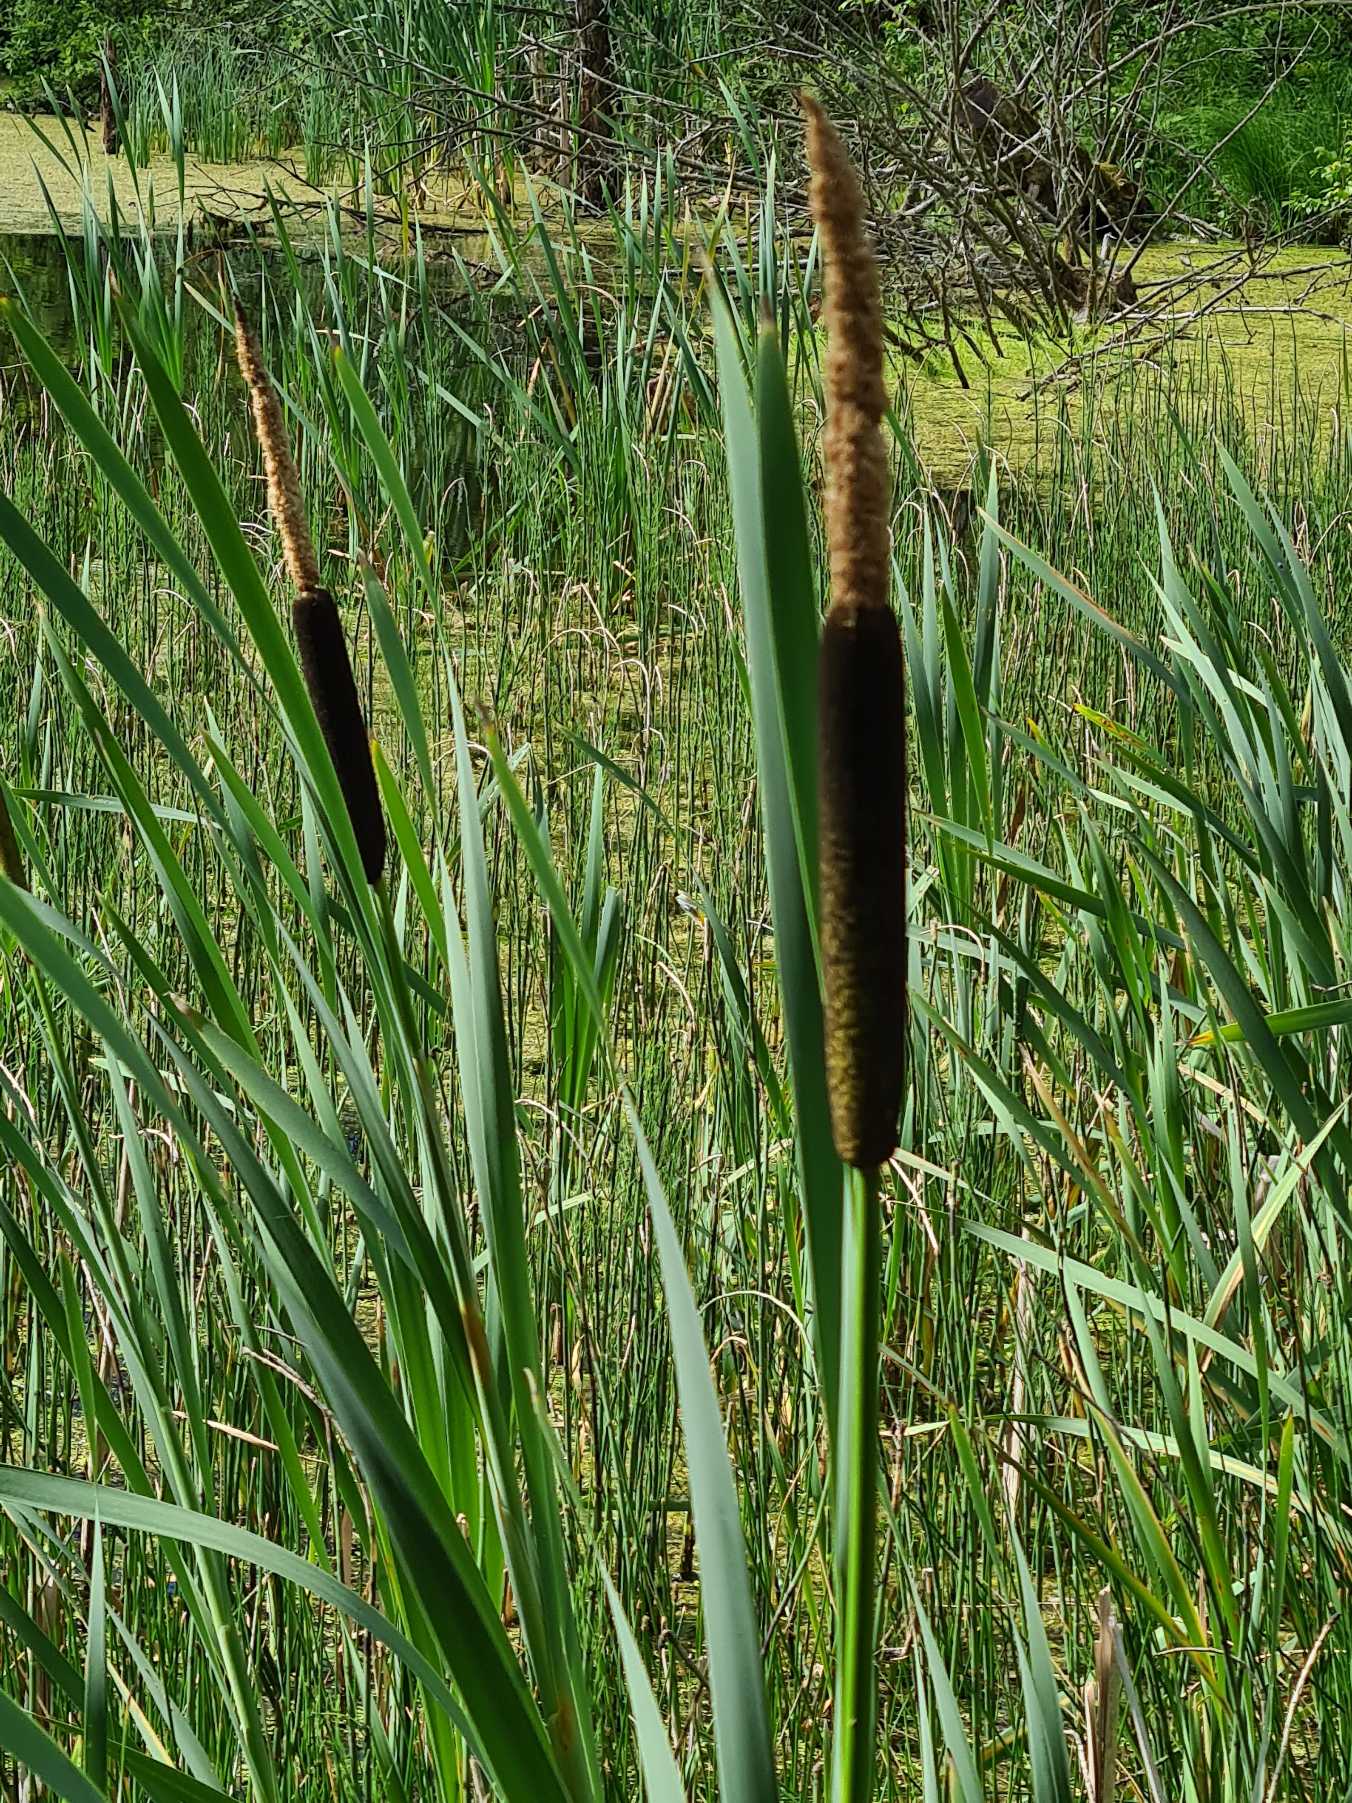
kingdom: Plantae
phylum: Tracheophyta
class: Liliopsida
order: Poales
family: Typhaceae
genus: Typha
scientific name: Typha latifolia
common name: Bredbladet dunhammer
